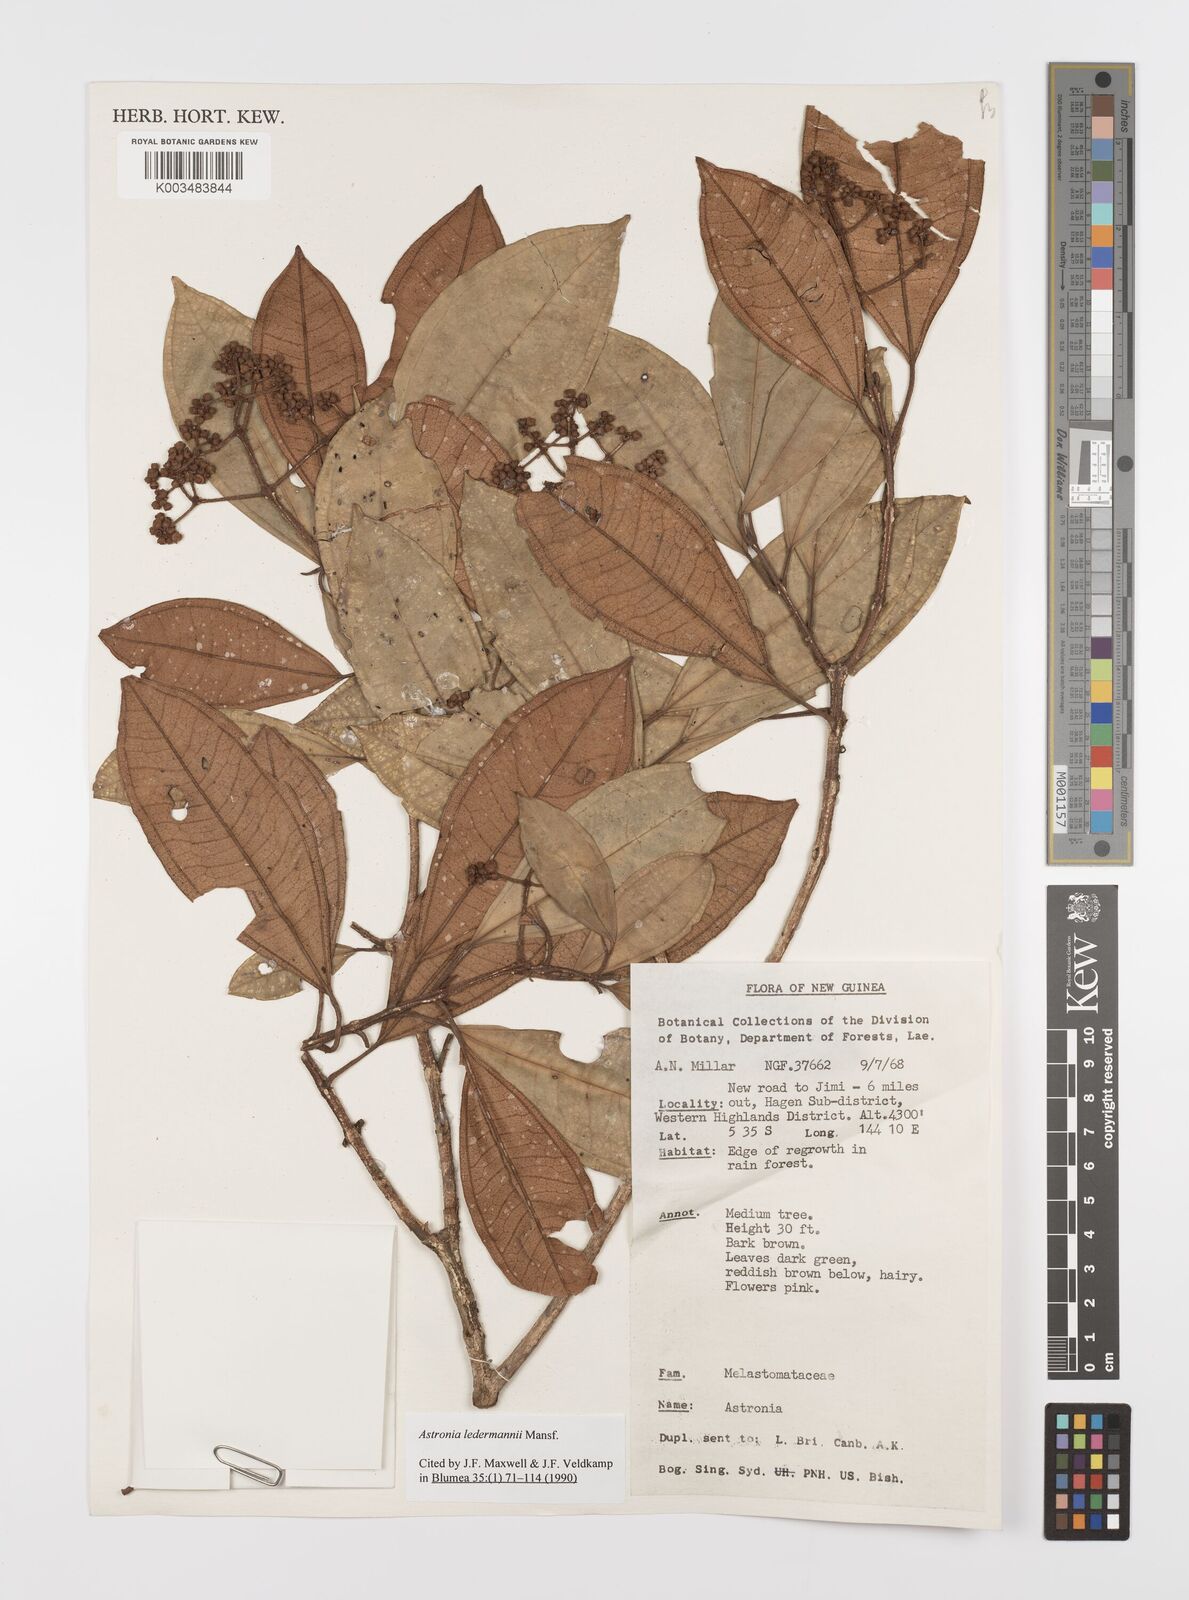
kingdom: Plantae
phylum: Tracheophyta
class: Magnoliopsida
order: Myrtales
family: Melastomataceae
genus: Astronia
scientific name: Astronia ledermannii
